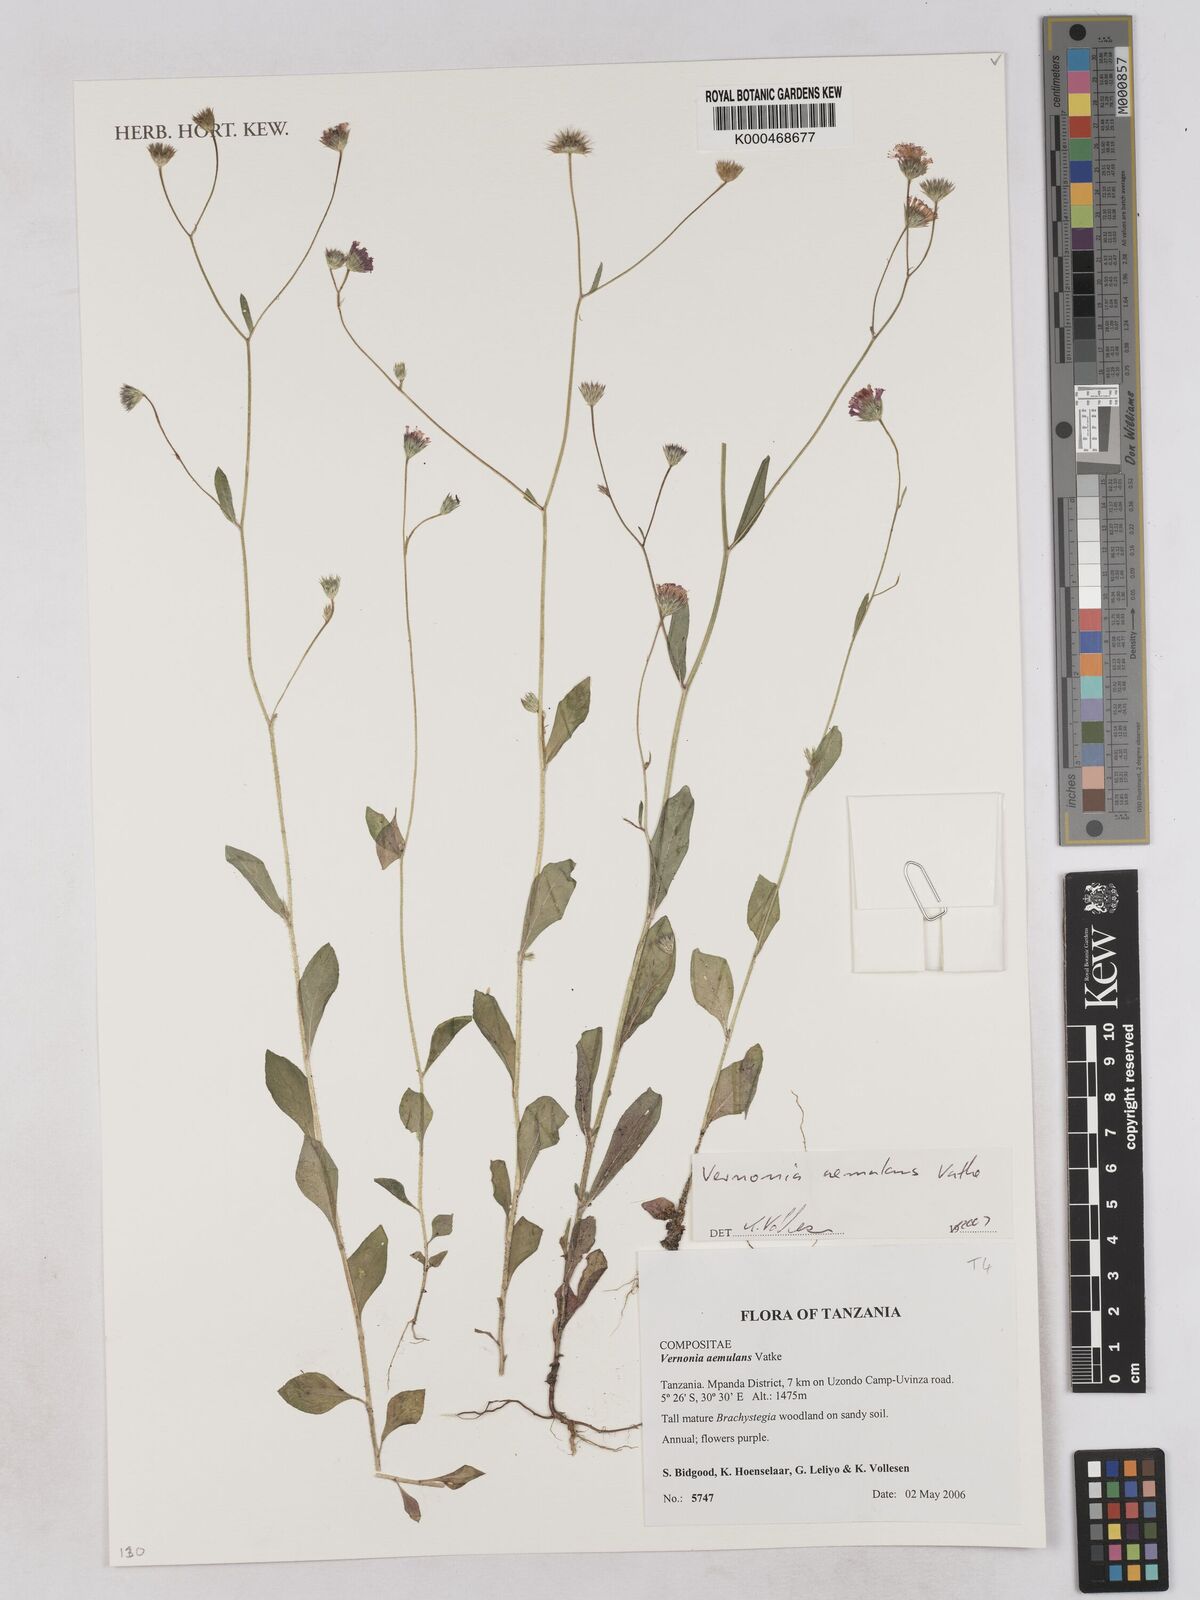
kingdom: Plantae
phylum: Tracheophyta
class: Magnoliopsida
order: Asterales
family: Asteraceae
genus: Vernoniastrum
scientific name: Vernoniastrum aemulans
